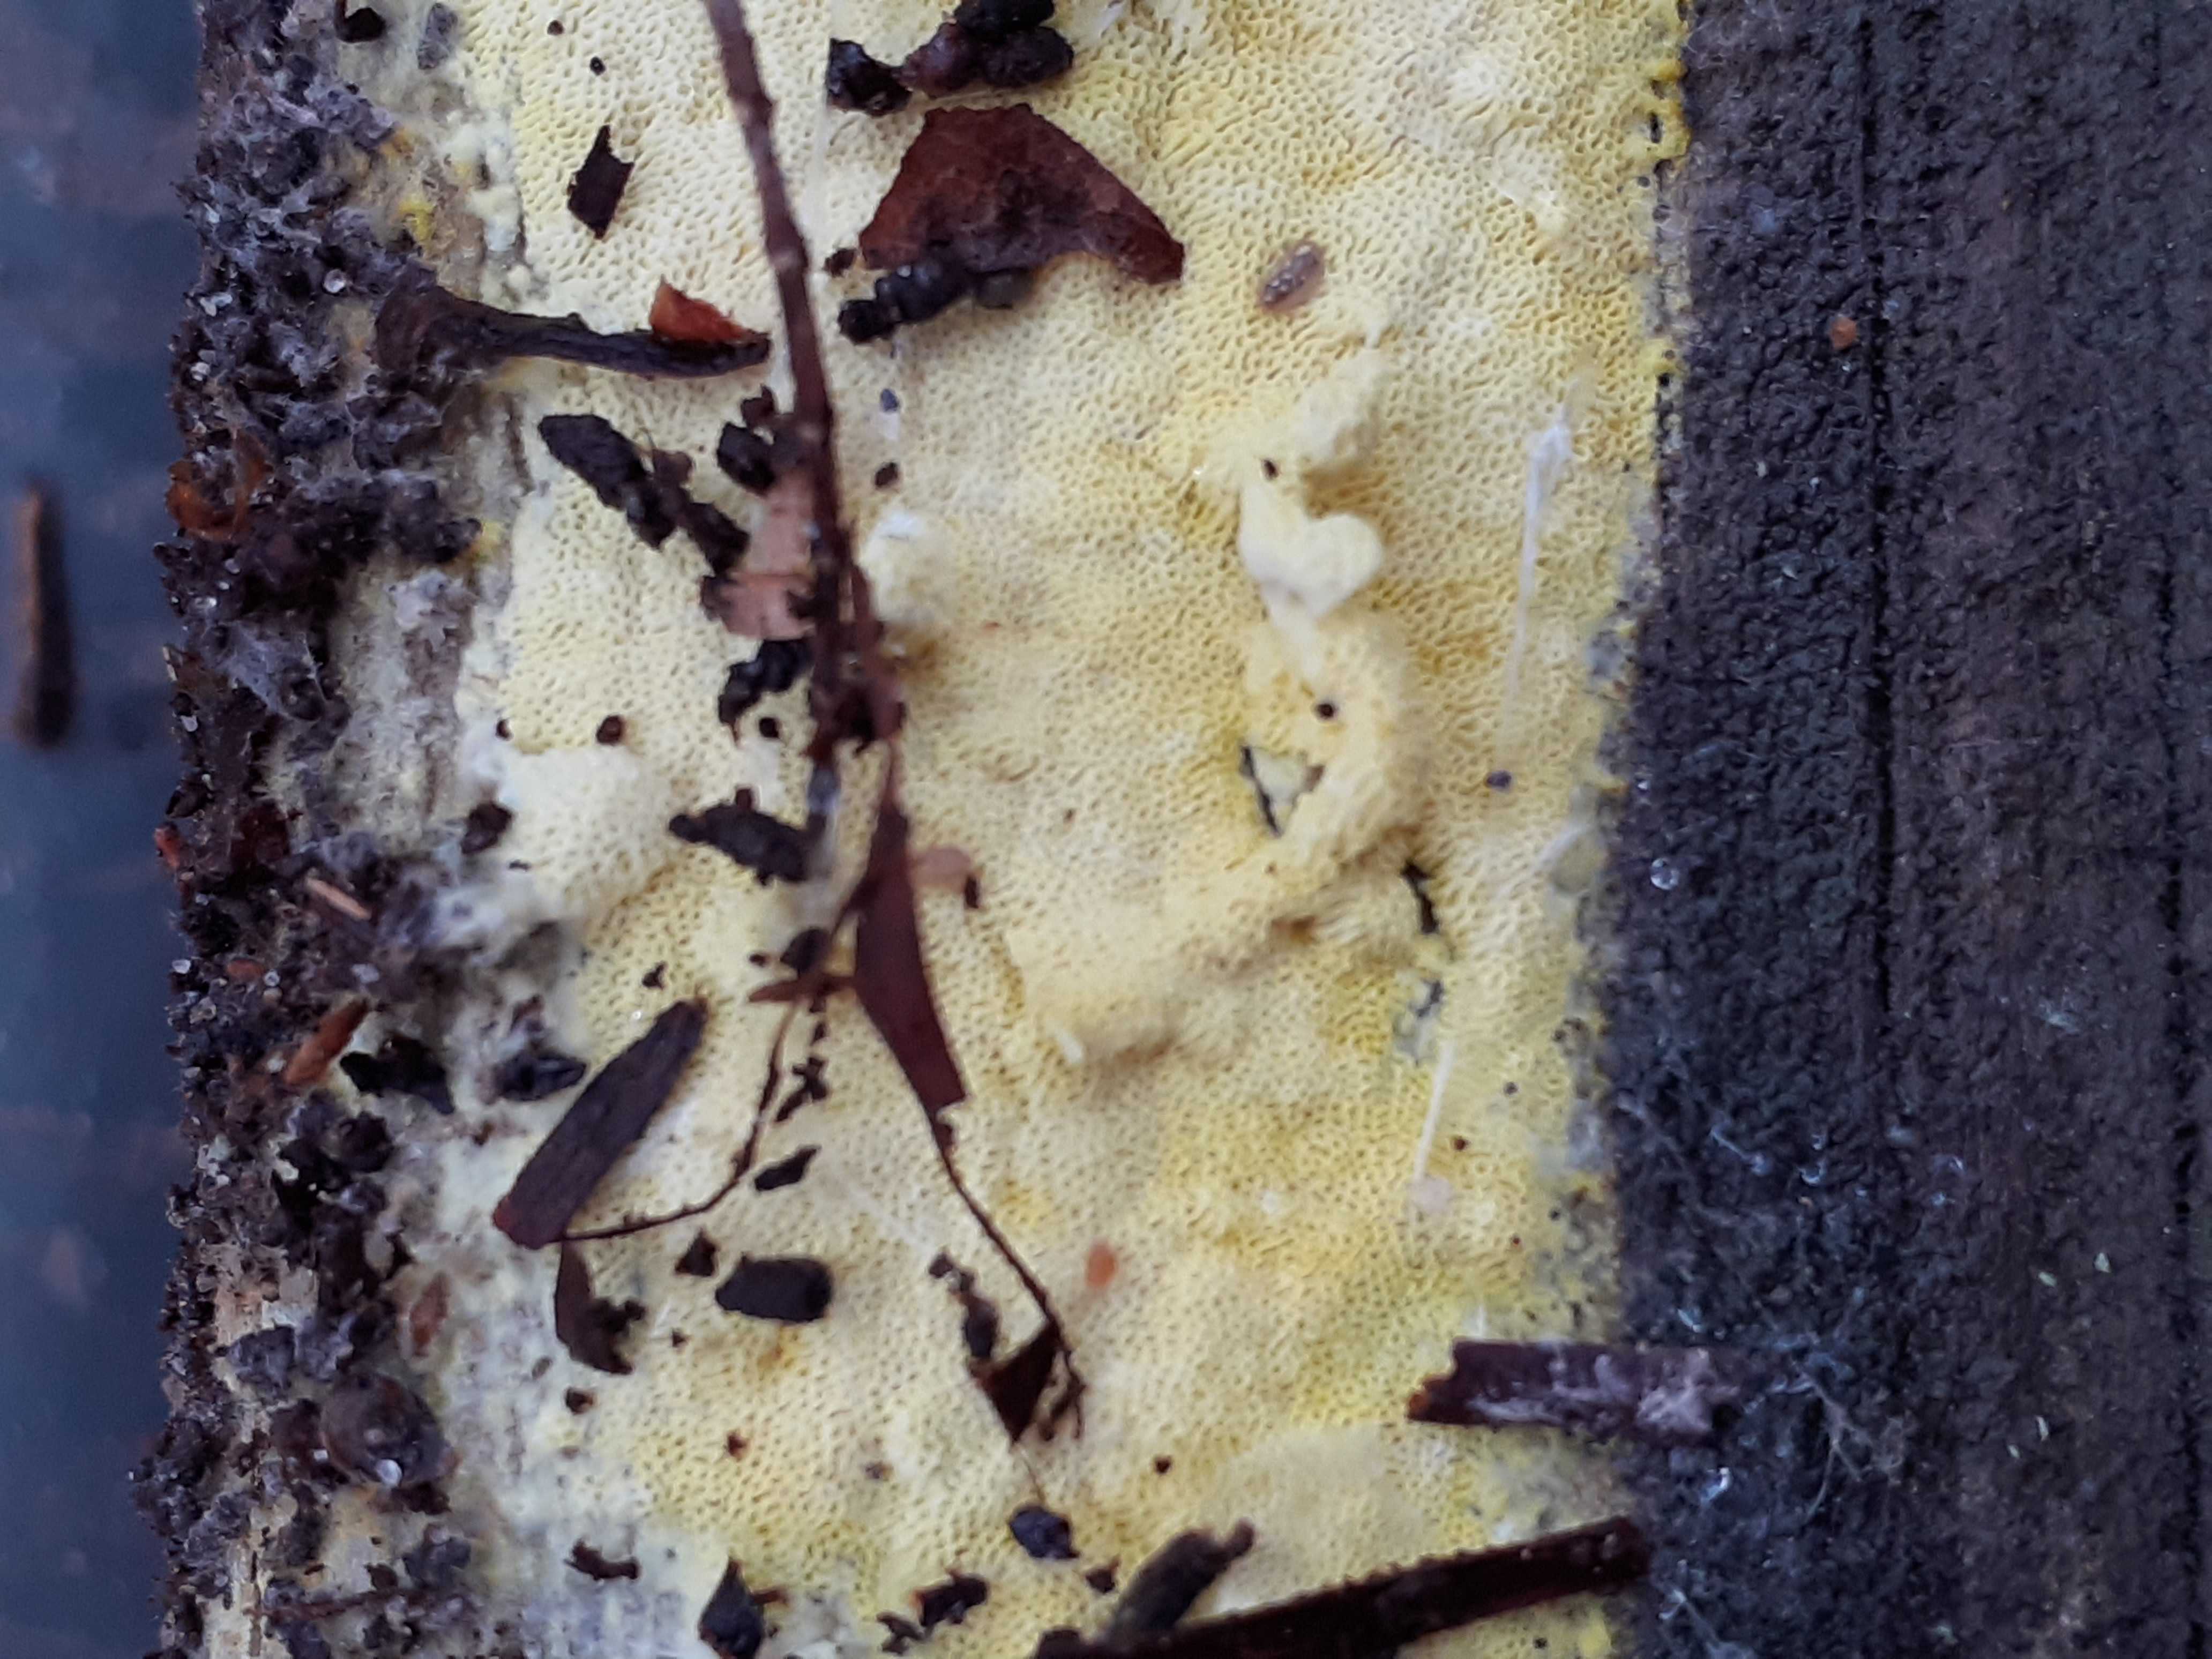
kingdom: Fungi
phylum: Basidiomycota
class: Agaricomycetes
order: Polyporales
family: Fomitopsidaceae
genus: Daedalea
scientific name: Daedalea xantha
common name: gul sejporesvamp
